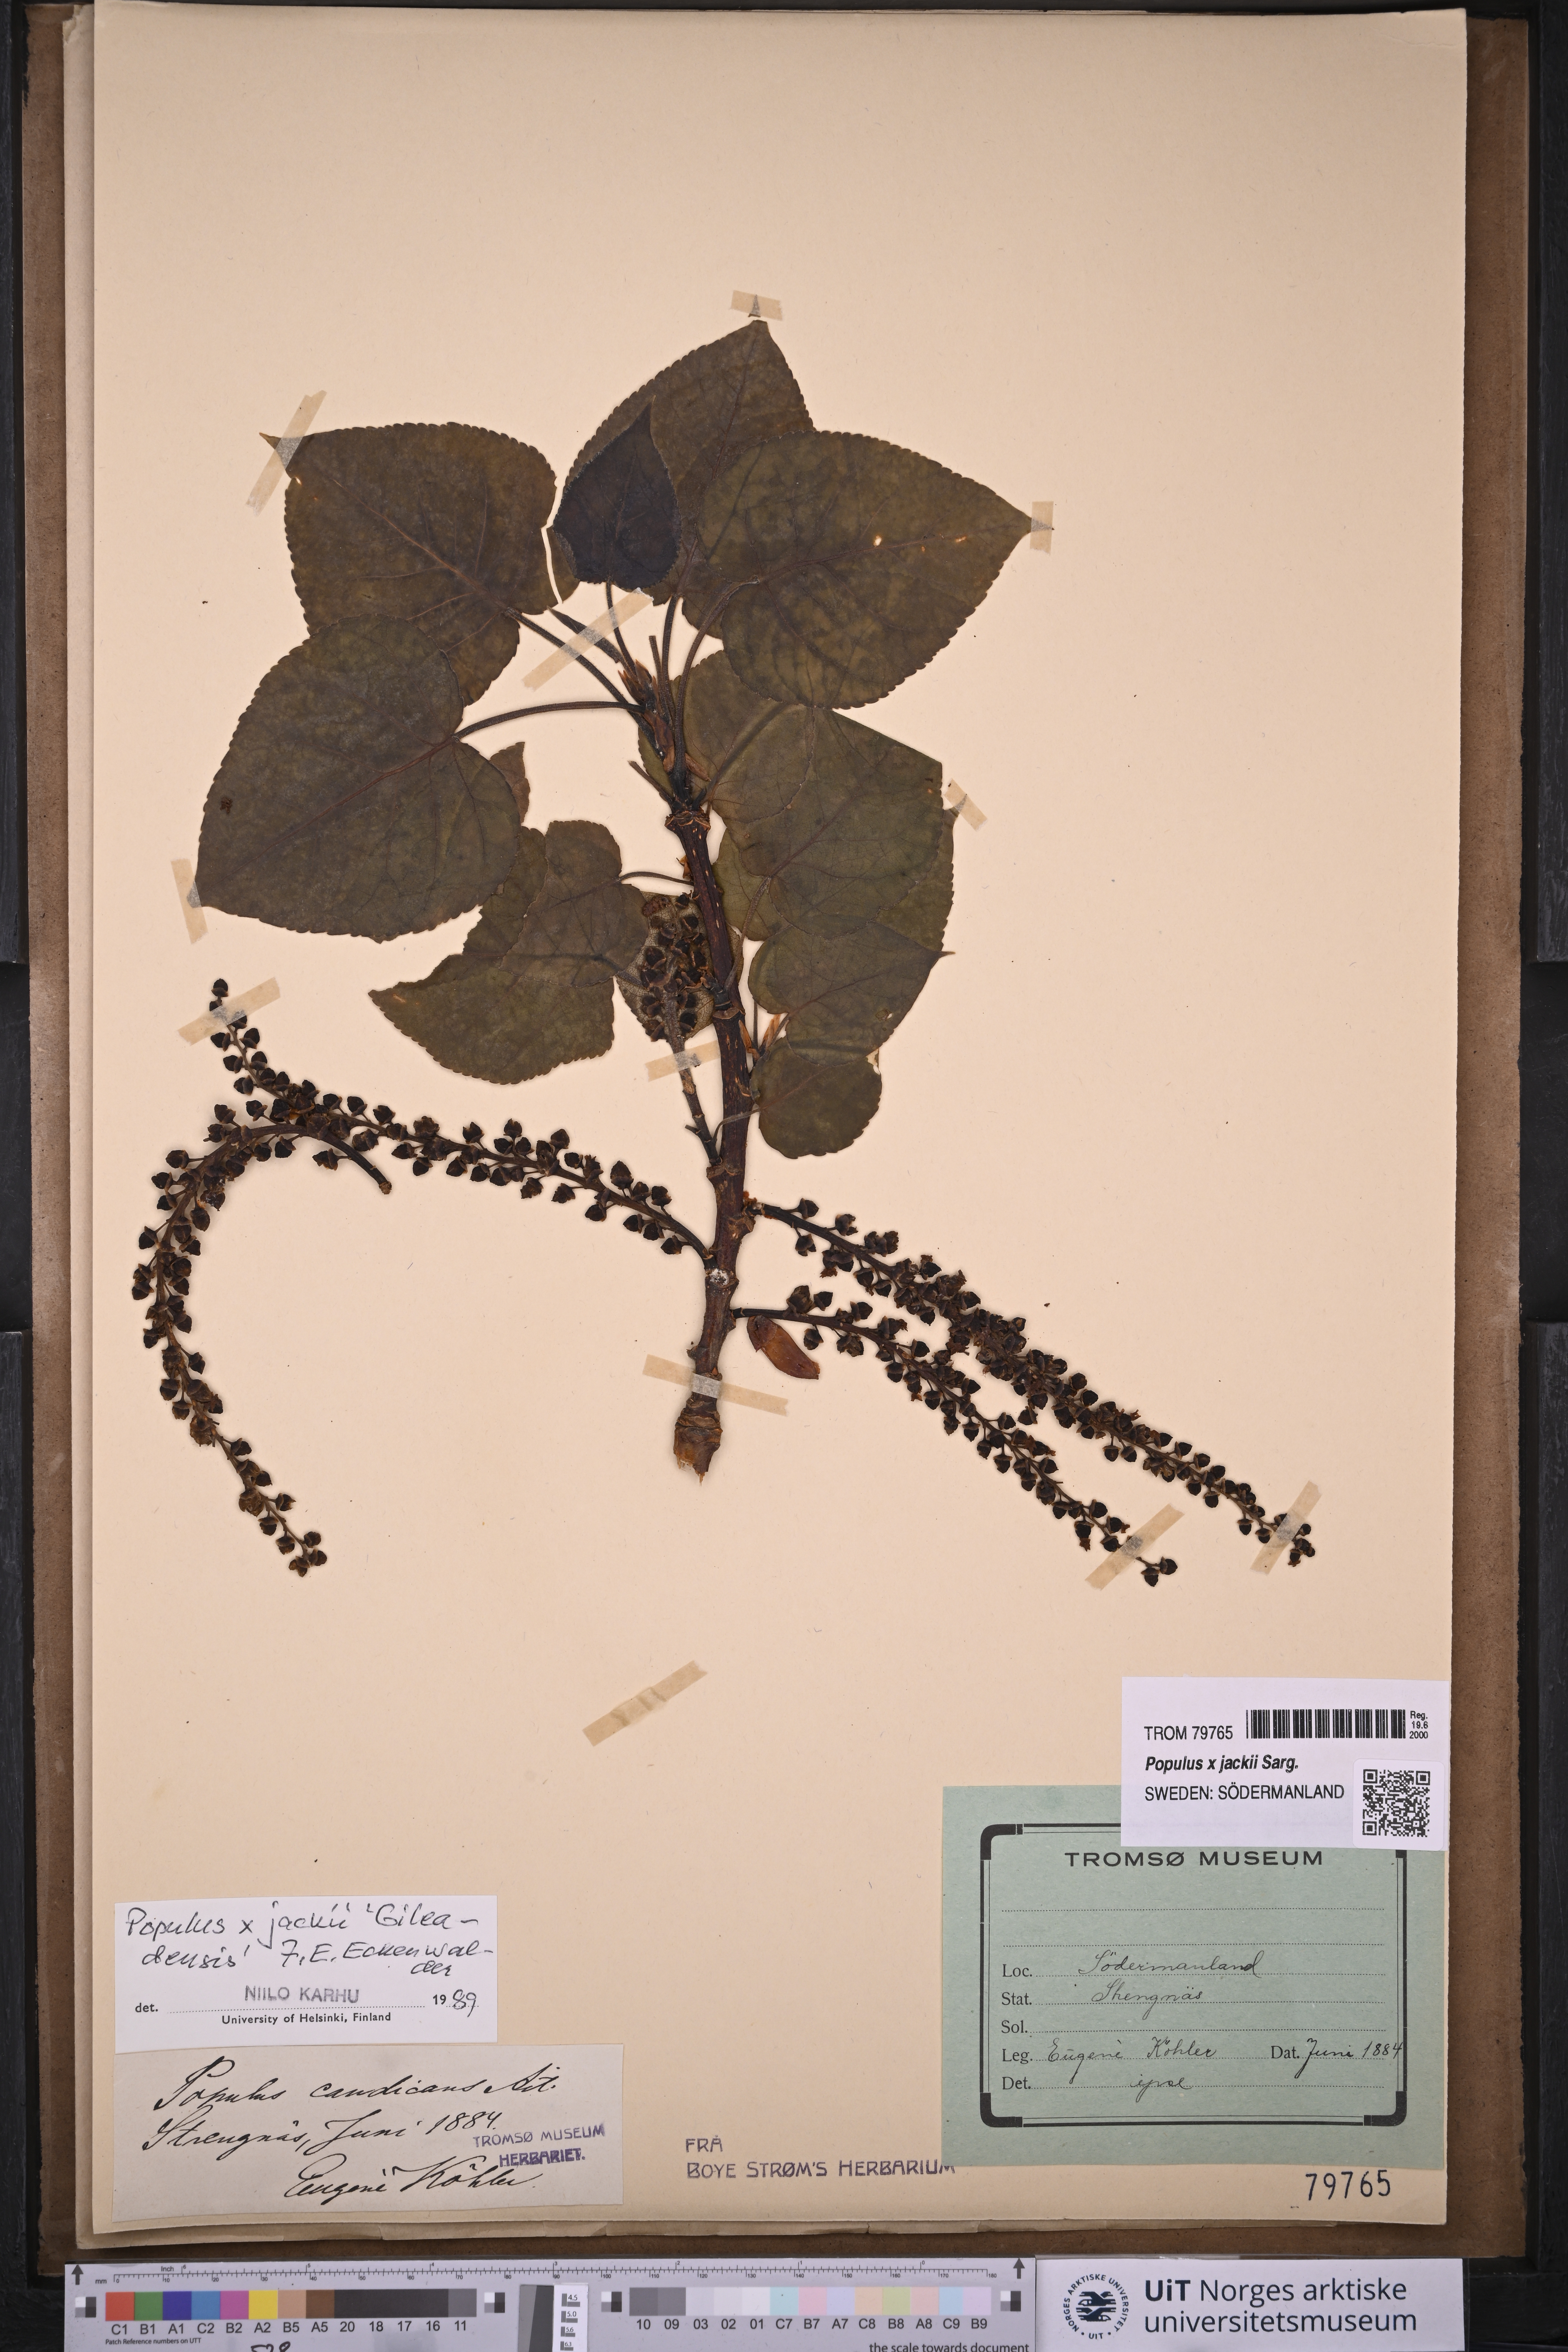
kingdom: Plantae
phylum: Tracheophyta
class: Magnoliopsida
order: Malpighiales
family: Salicaceae
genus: Populus
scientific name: Populus jackii
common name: Balm-of-gilead
